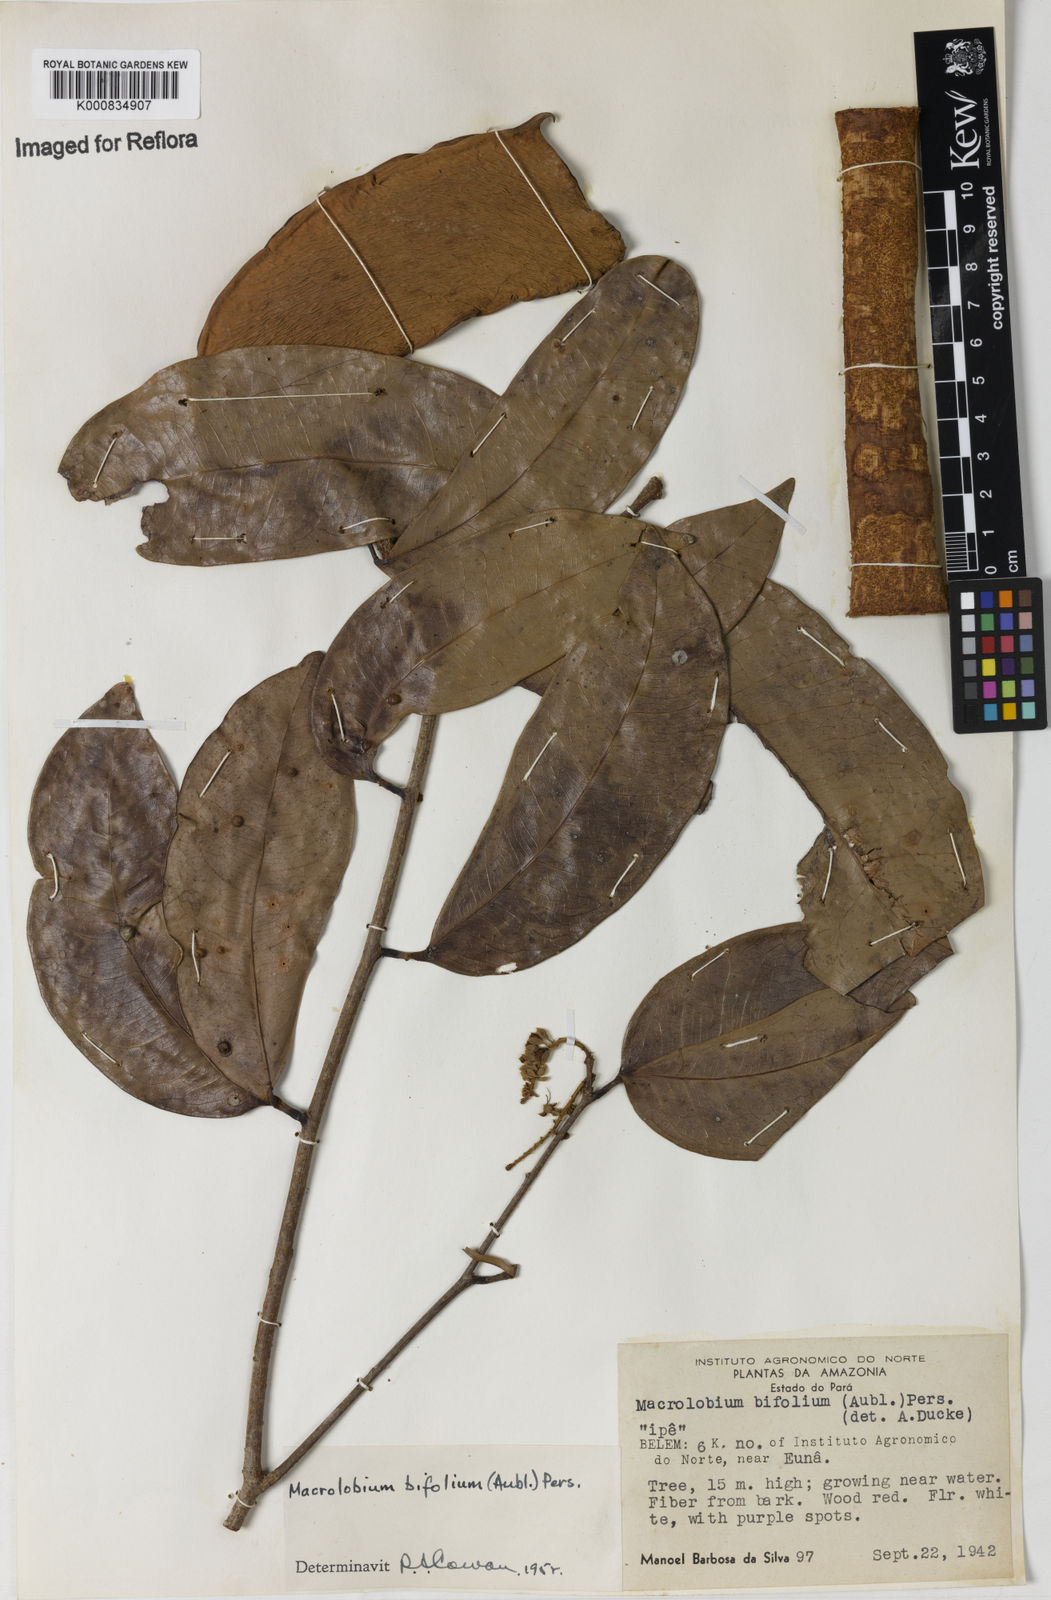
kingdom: Plantae
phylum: Tracheophyta
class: Magnoliopsida
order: Fabales
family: Fabaceae
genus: Macrolobium
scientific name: Macrolobium bifolium
